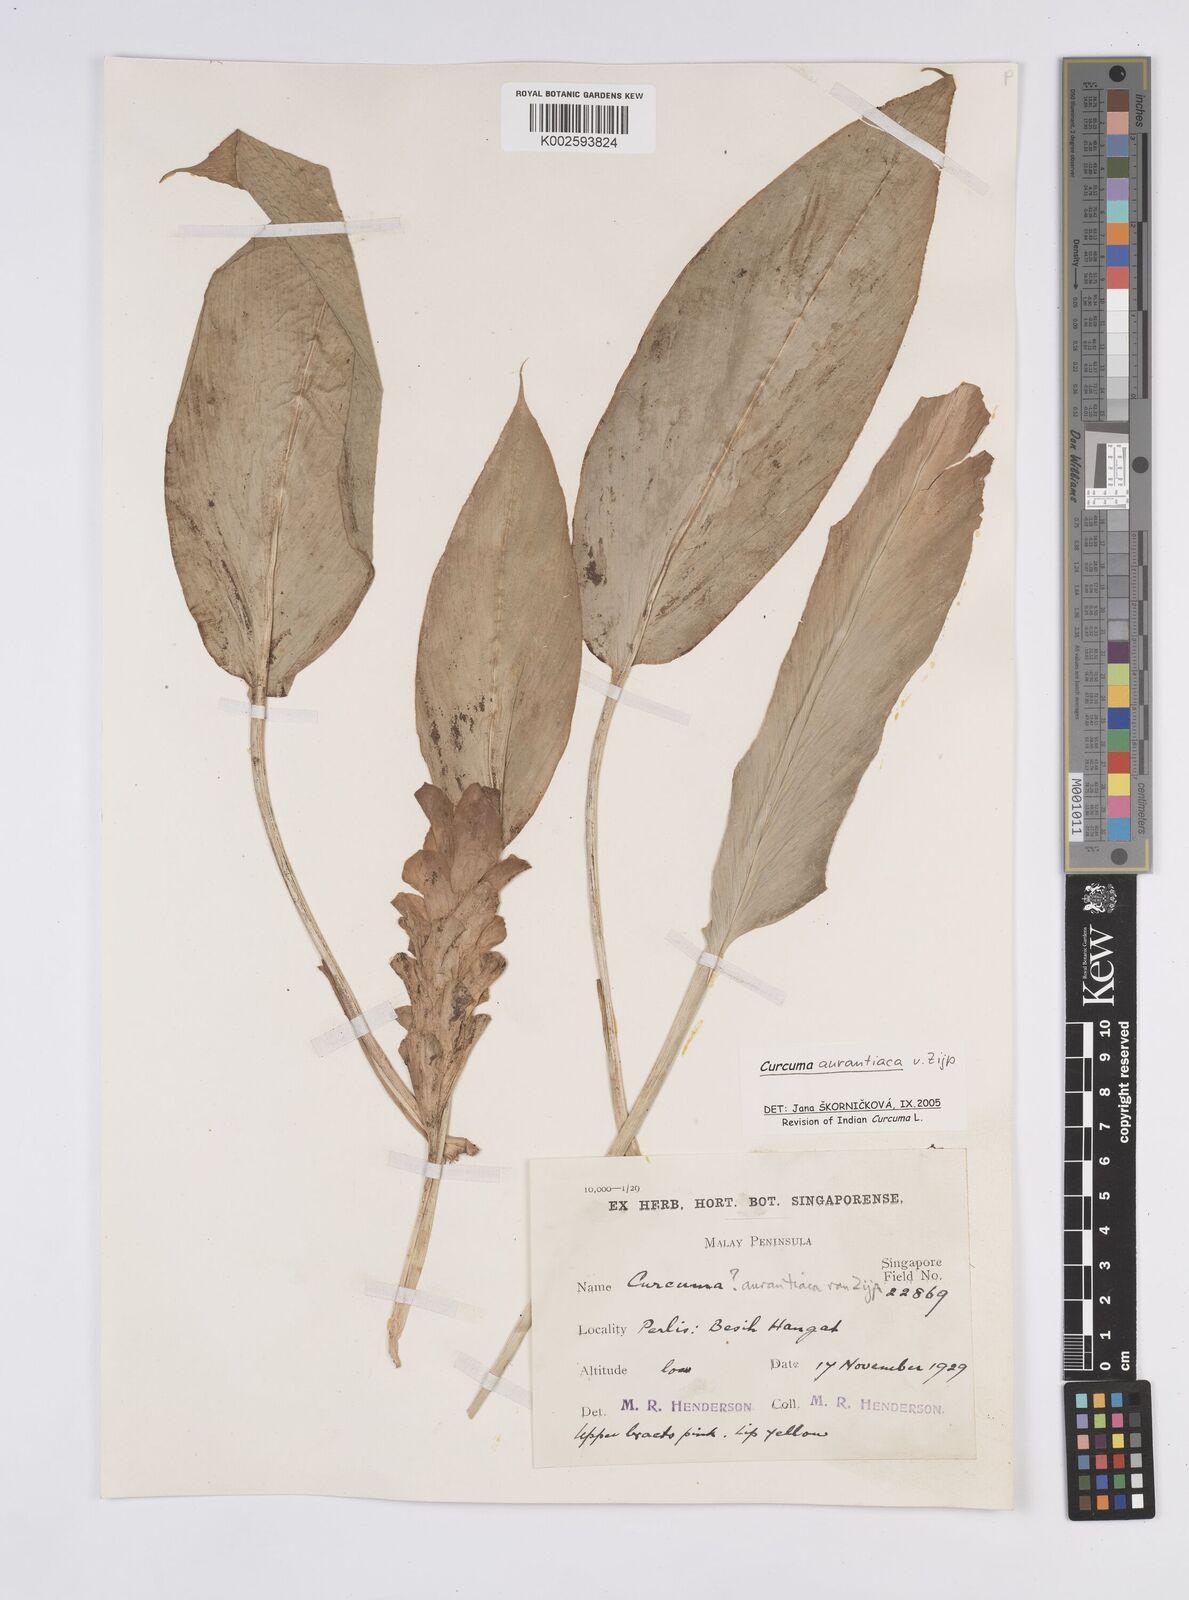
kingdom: Plantae
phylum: Tracheophyta
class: Liliopsida
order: Zingiberales
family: Zingiberaceae
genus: Curcuma
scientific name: Curcuma aurantiaca
